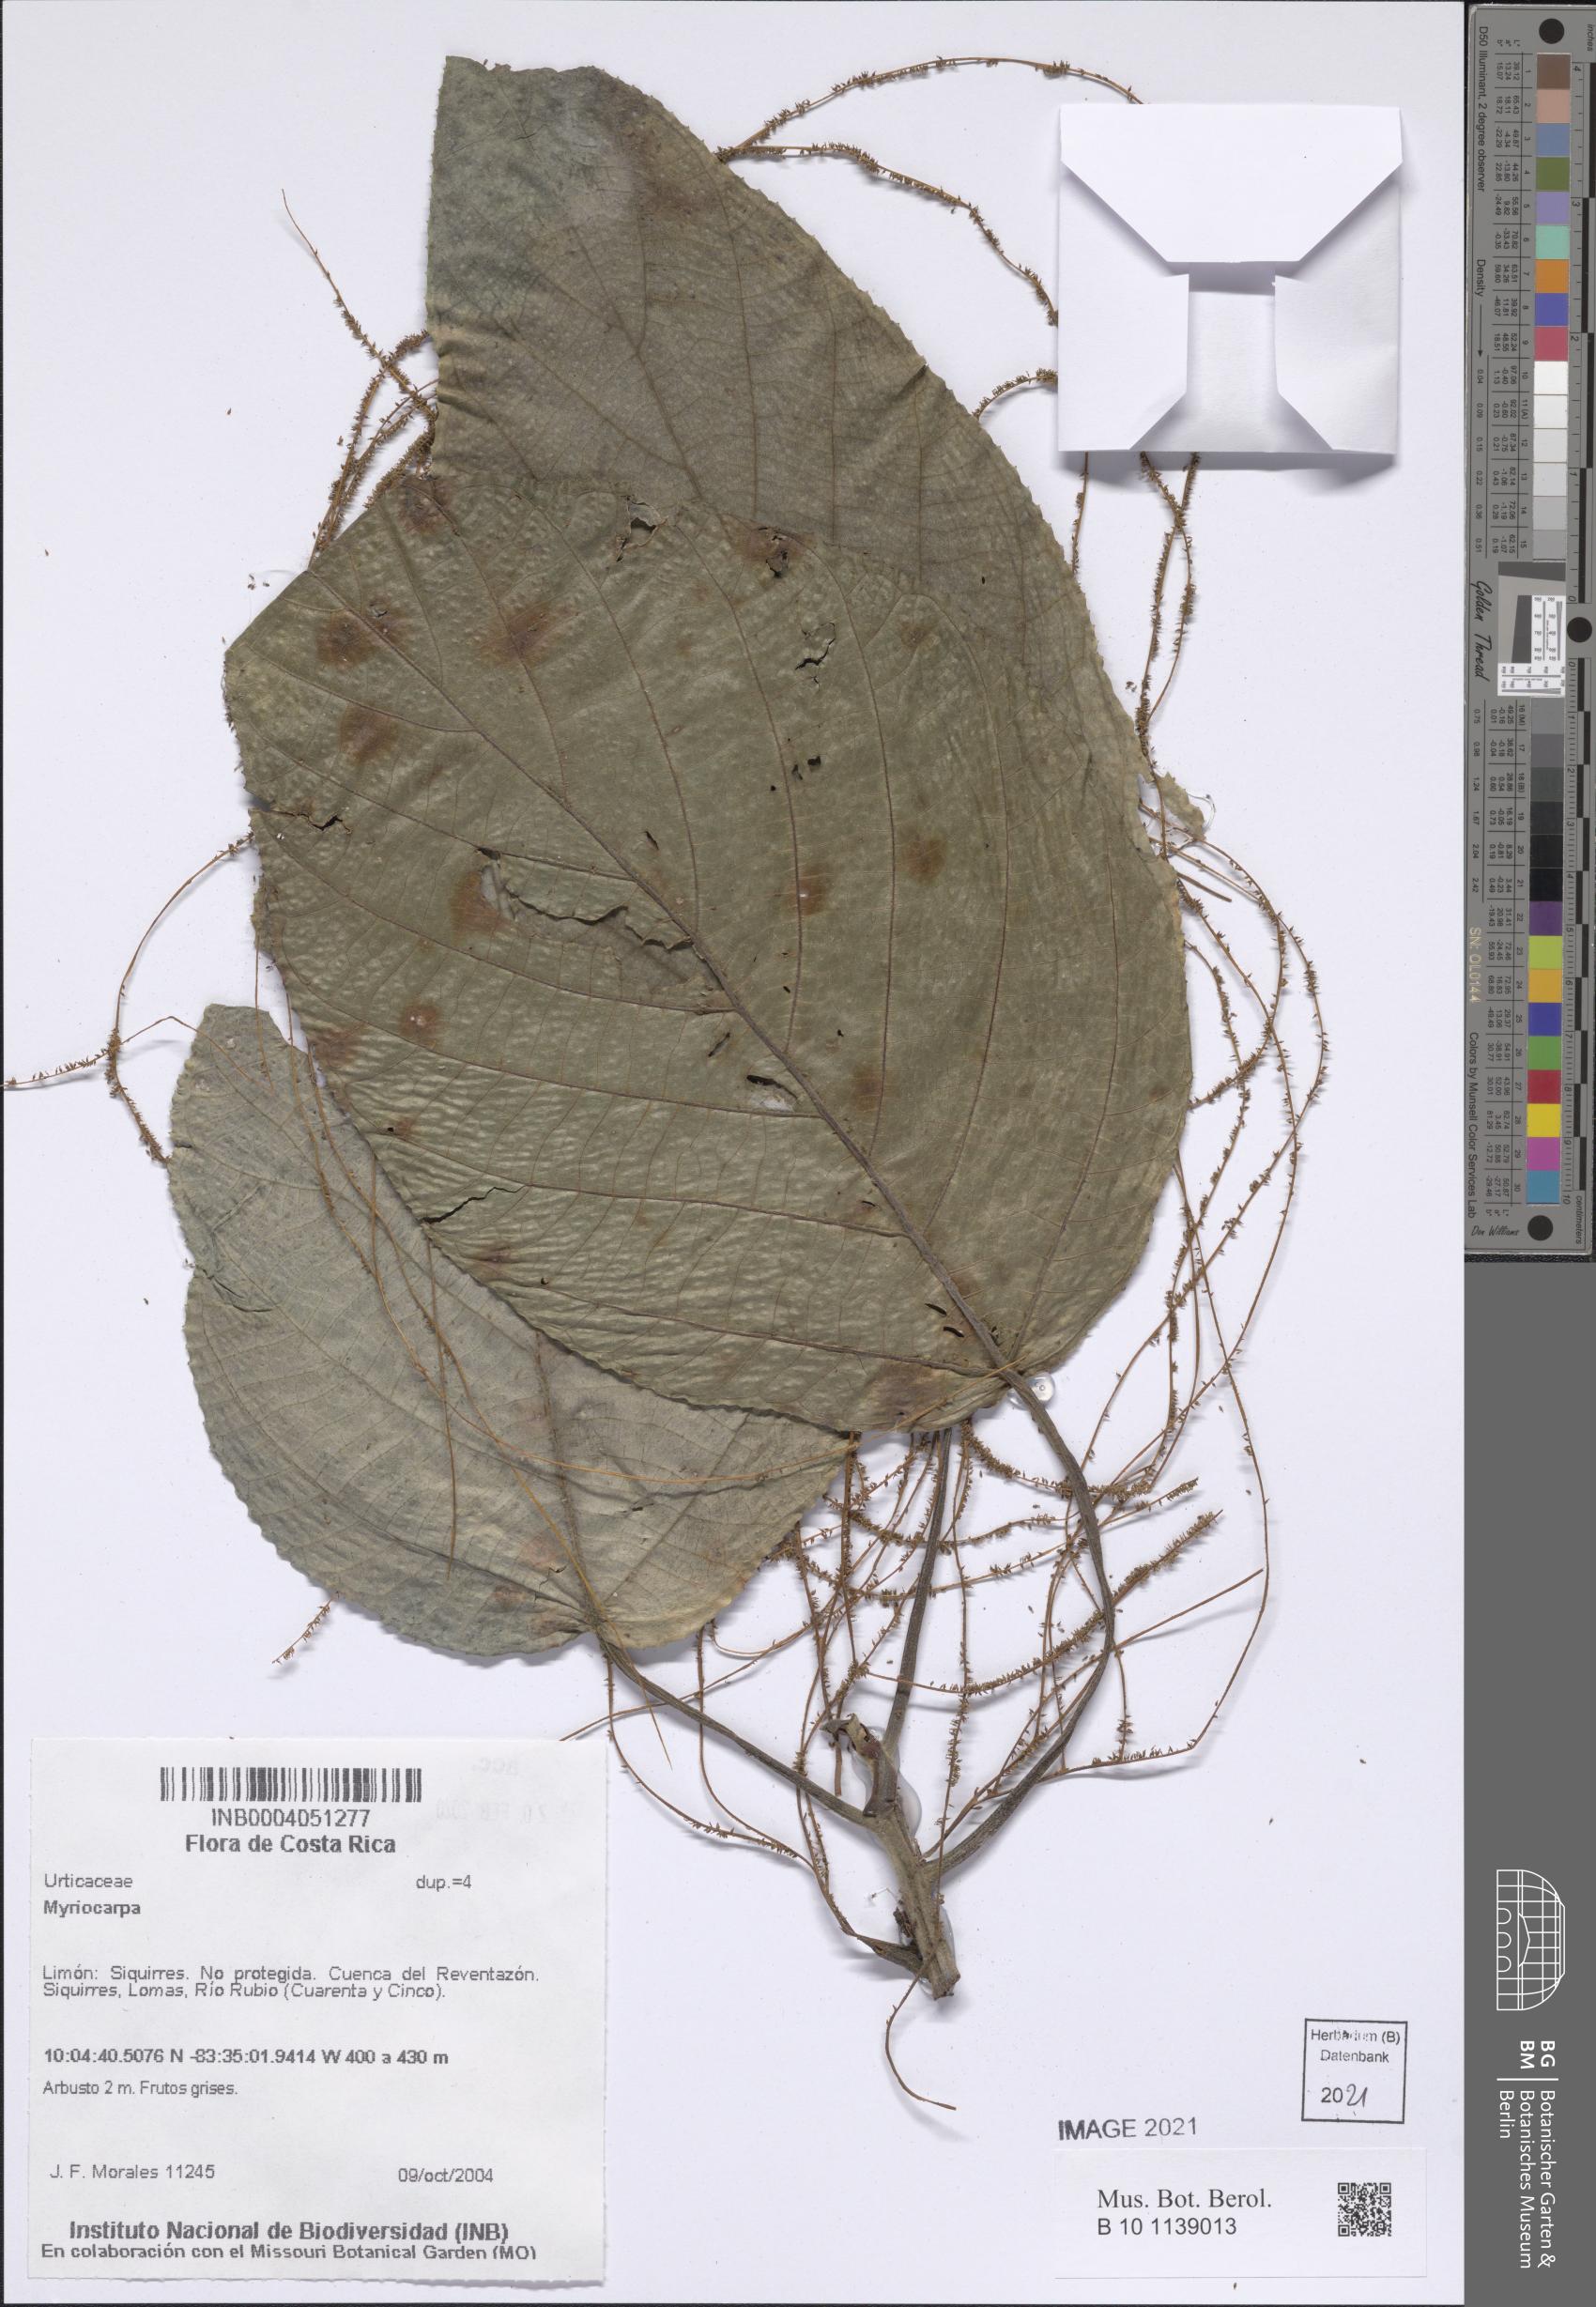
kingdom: Plantae
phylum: Tracheophyta
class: Magnoliopsida
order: Rosales
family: Urticaceae
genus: Myriocarpa
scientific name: Myriocarpa
